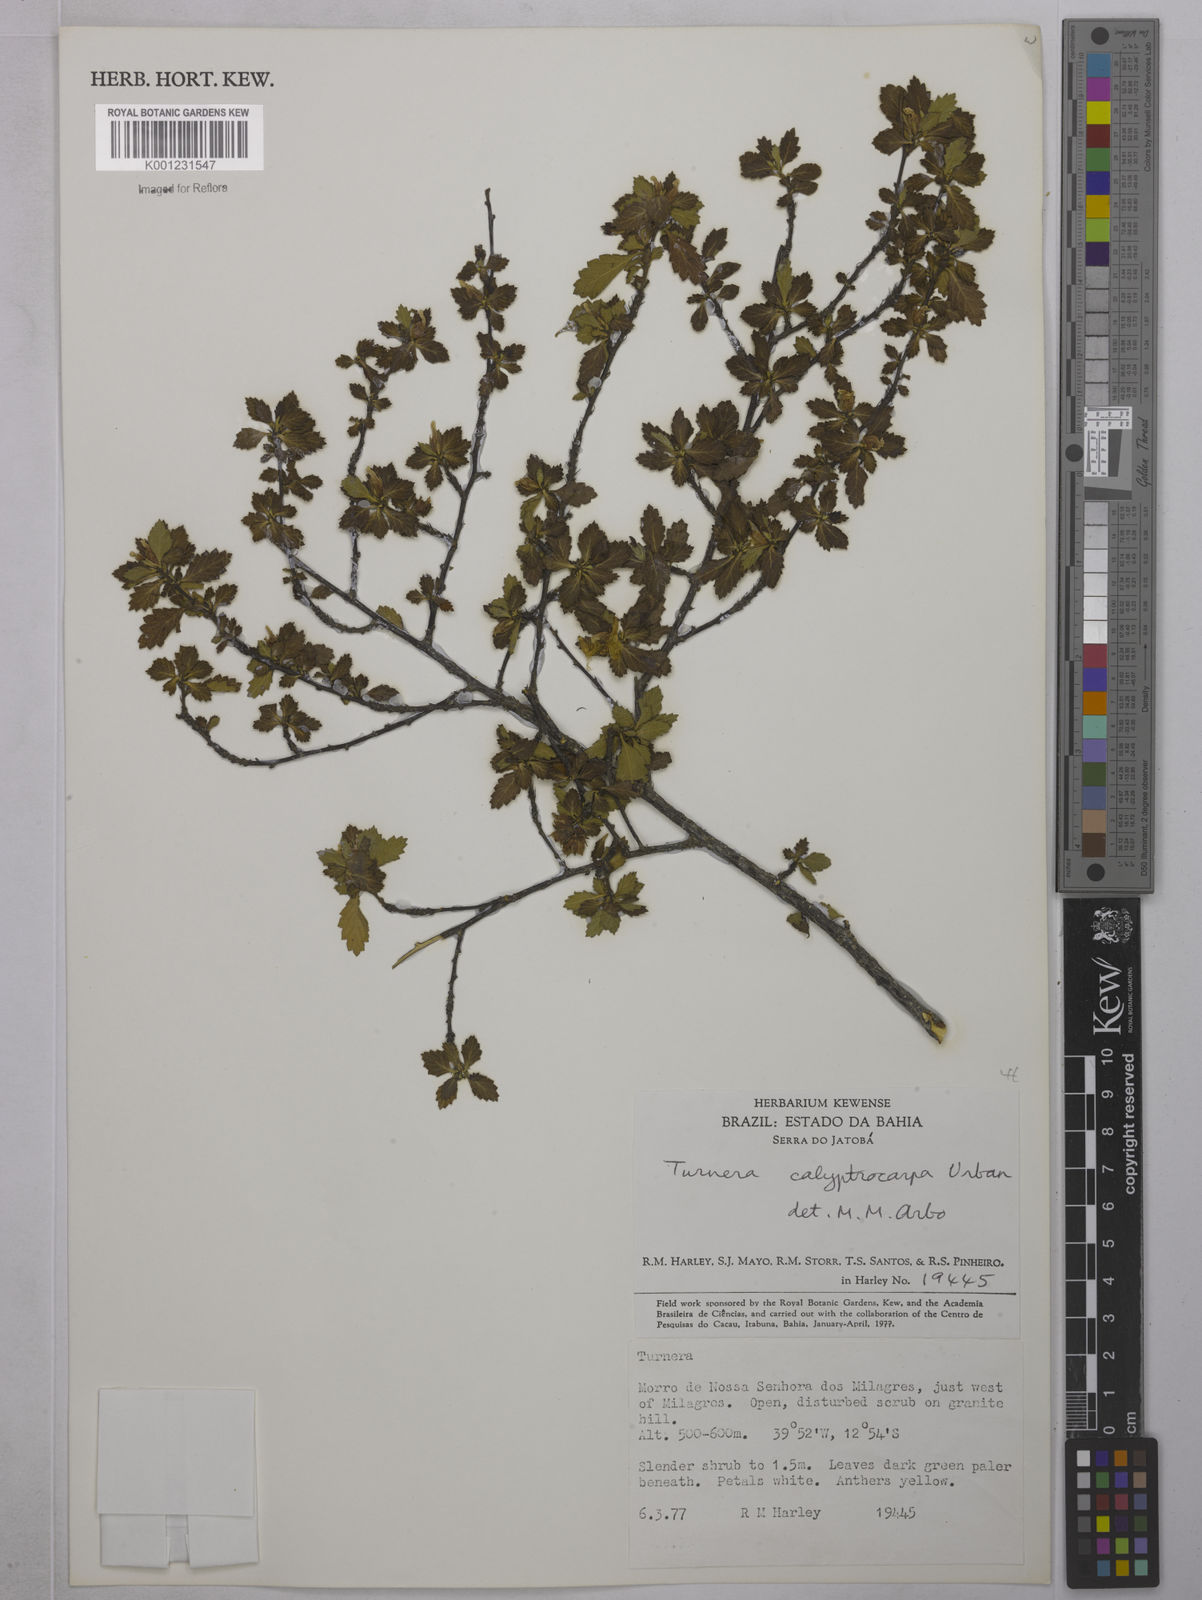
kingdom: Plantae
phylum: Tracheophyta
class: Magnoliopsida
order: Malpighiales
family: Turneraceae
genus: Oxossia
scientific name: Oxossia calyptrocarpa
